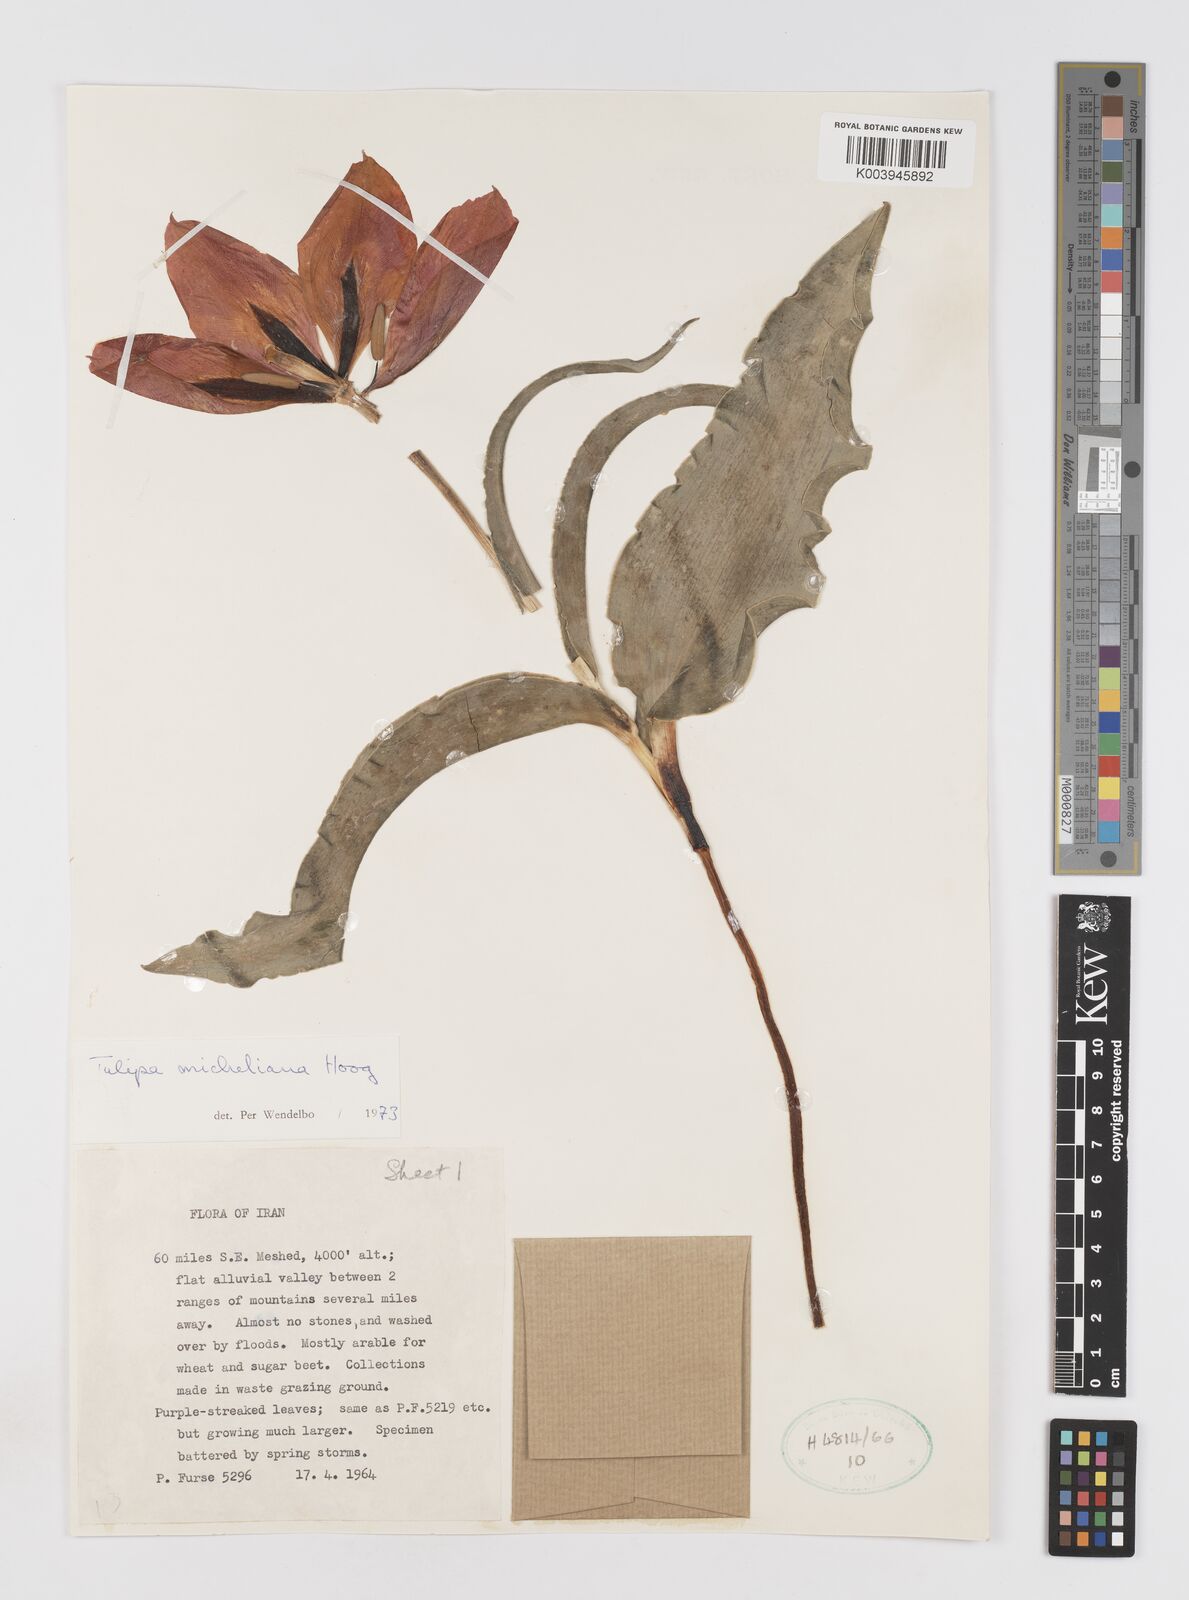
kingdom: Plantae
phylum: Tracheophyta
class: Liliopsida
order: Liliales
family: Liliaceae
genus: Tulipa
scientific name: Tulipa undulatifolia
